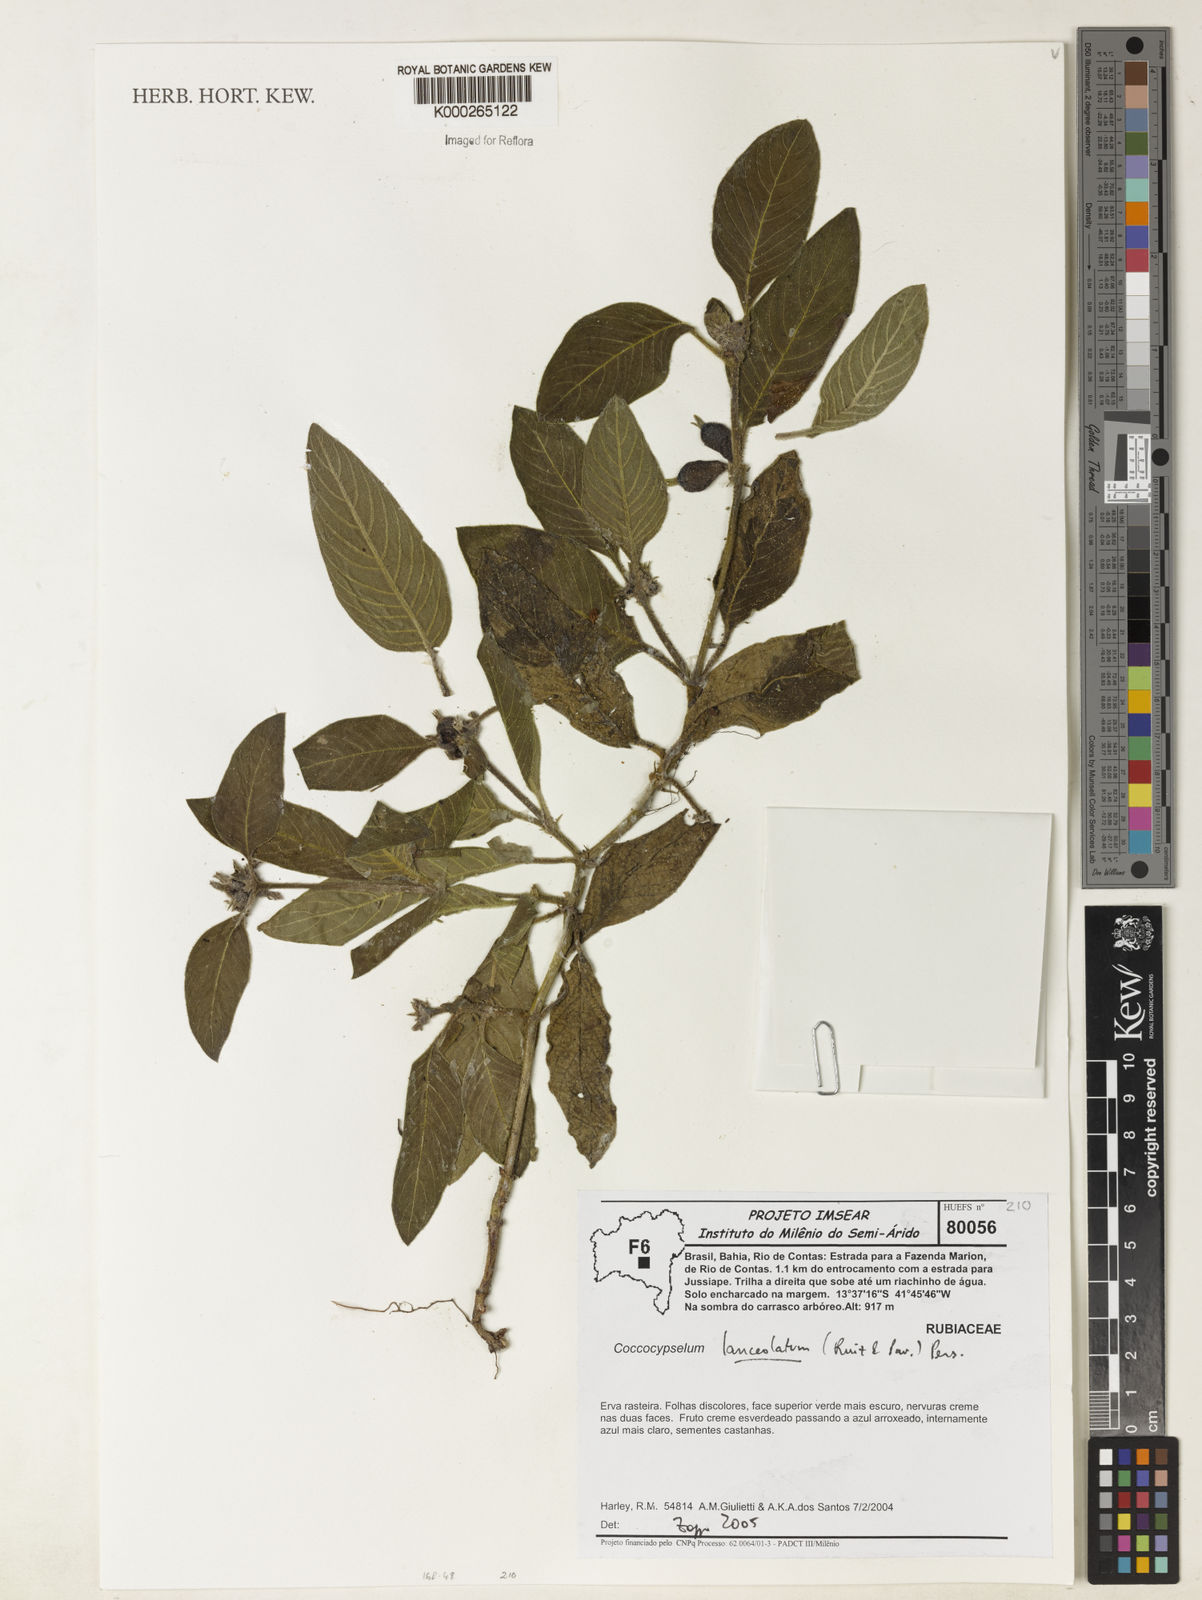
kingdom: Plantae
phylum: Tracheophyta
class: Magnoliopsida
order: Gentianales
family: Rubiaceae
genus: Coccocypselum
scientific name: Coccocypselum lanceolatum
